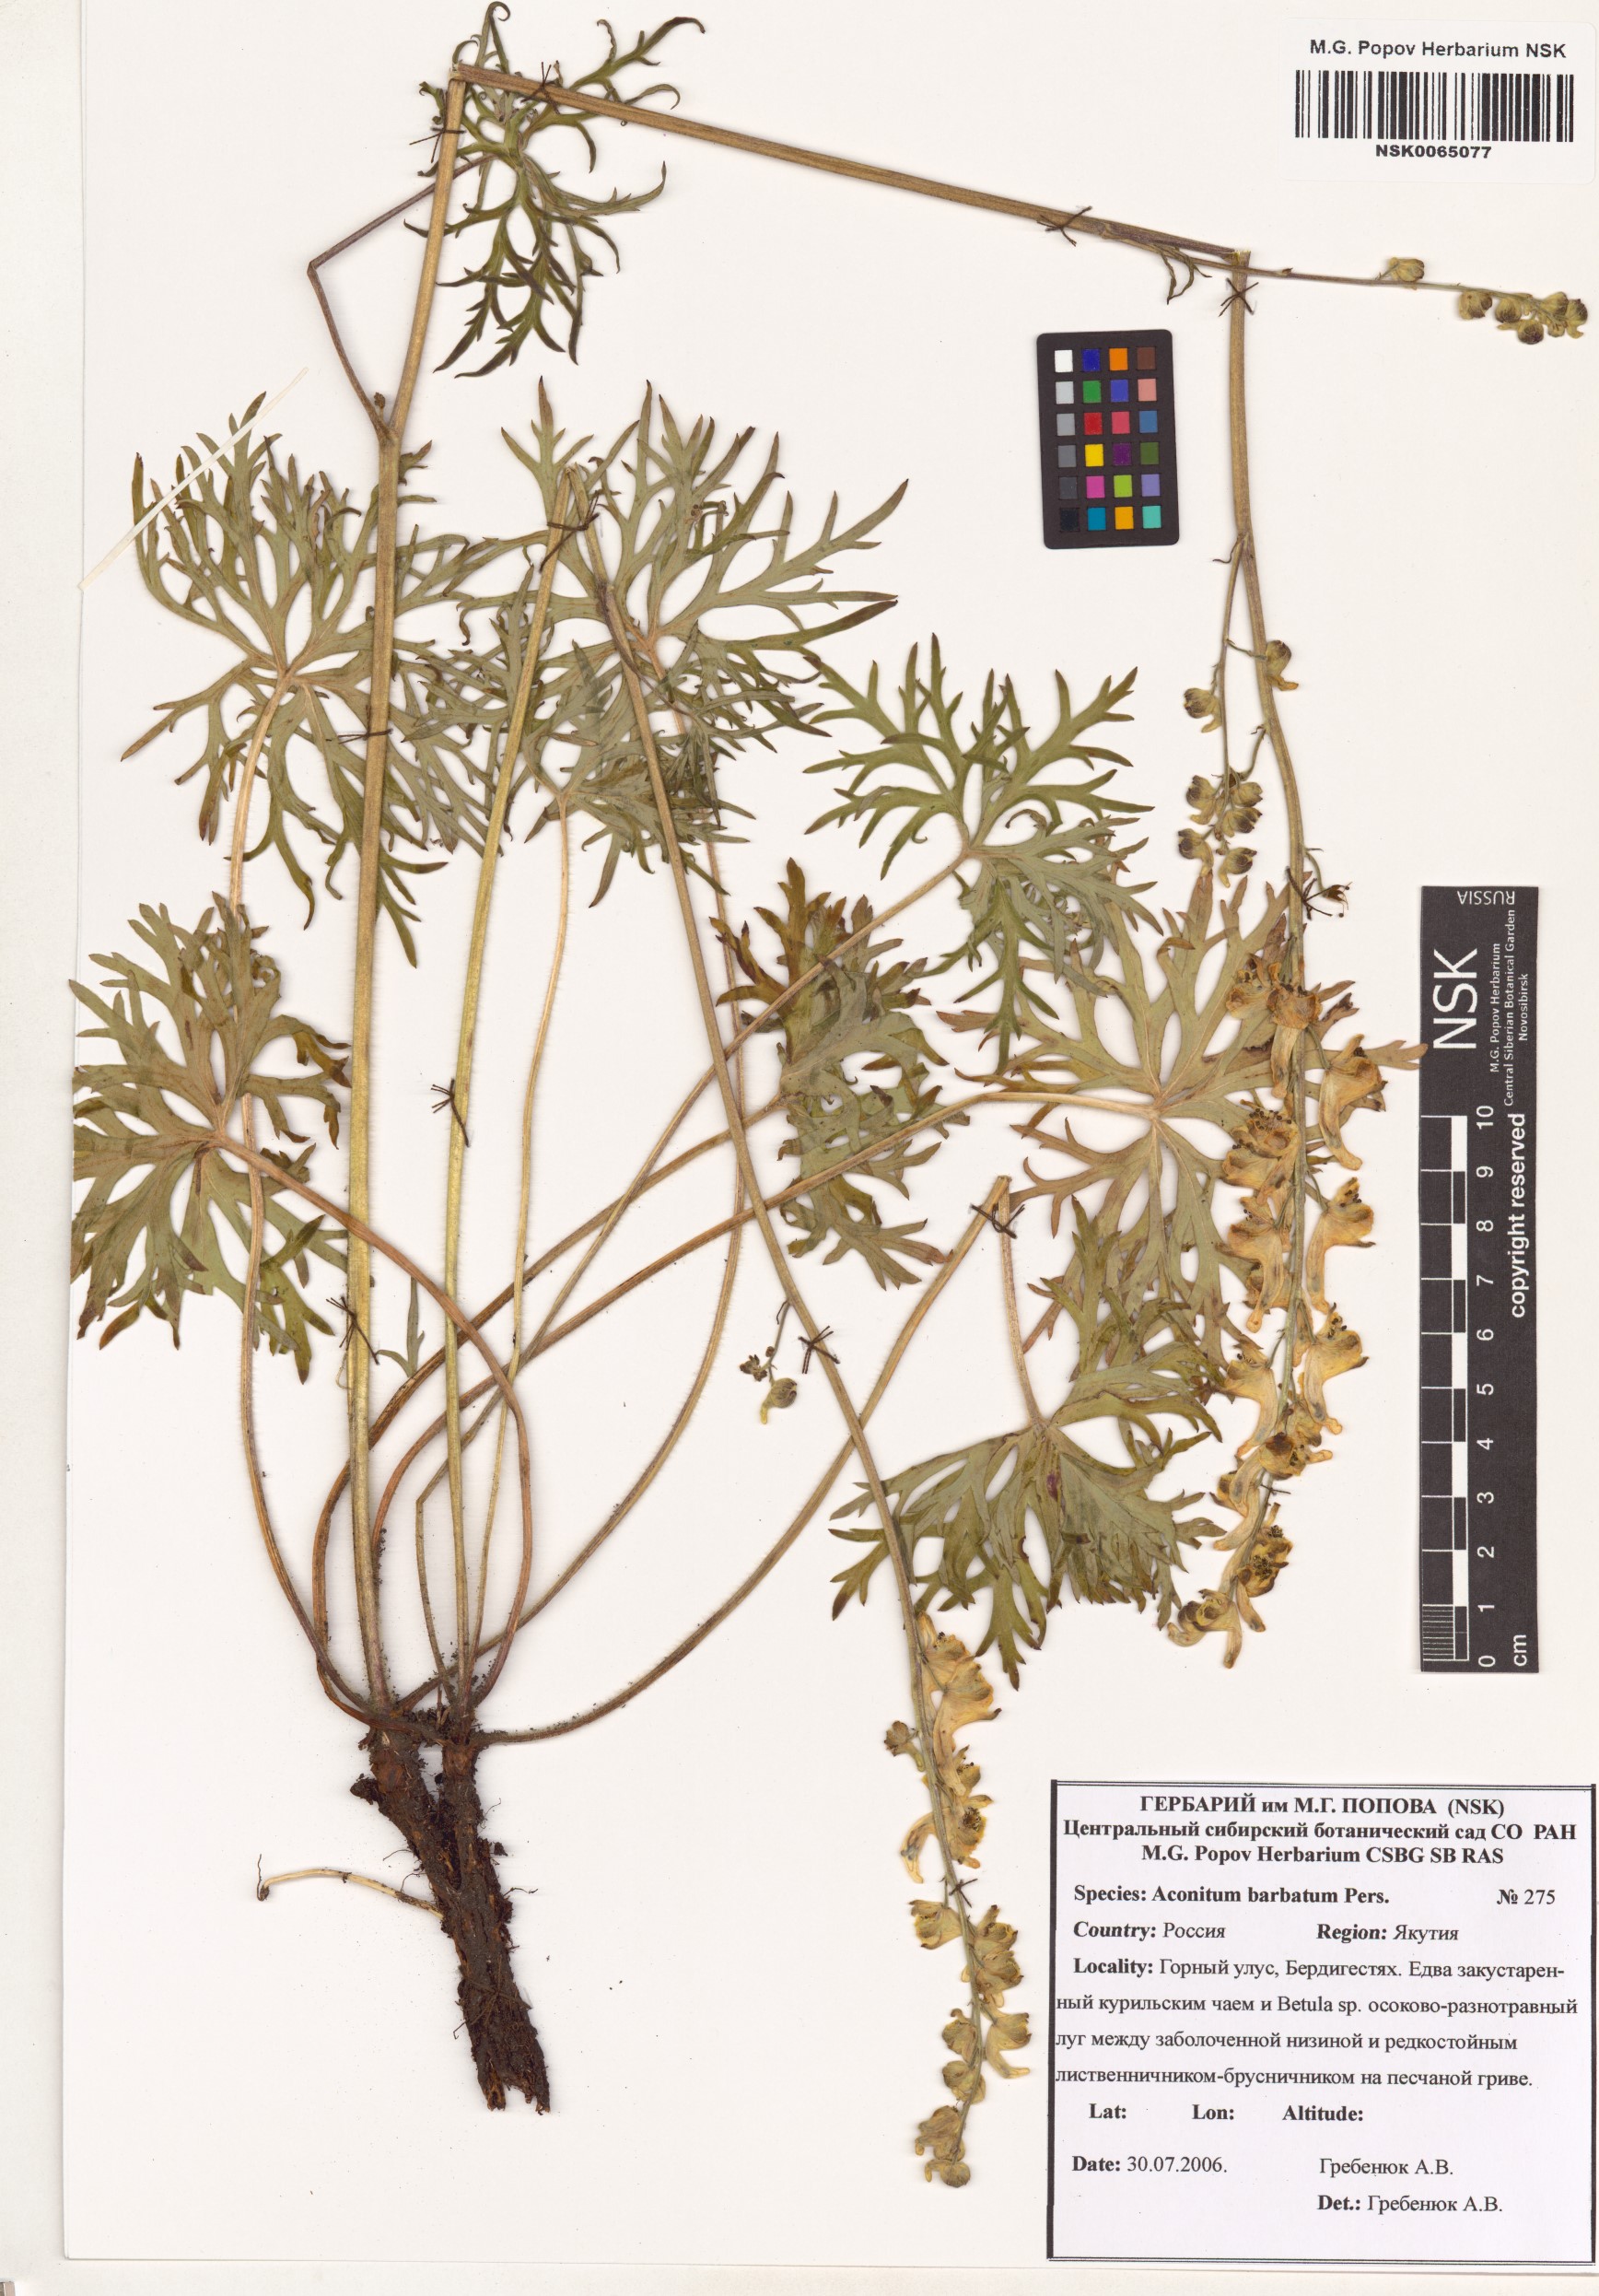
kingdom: Plantae
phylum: Tracheophyta
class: Magnoliopsida
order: Ranunculales
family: Ranunculaceae
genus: Aconitum
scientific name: Aconitum barbatum
